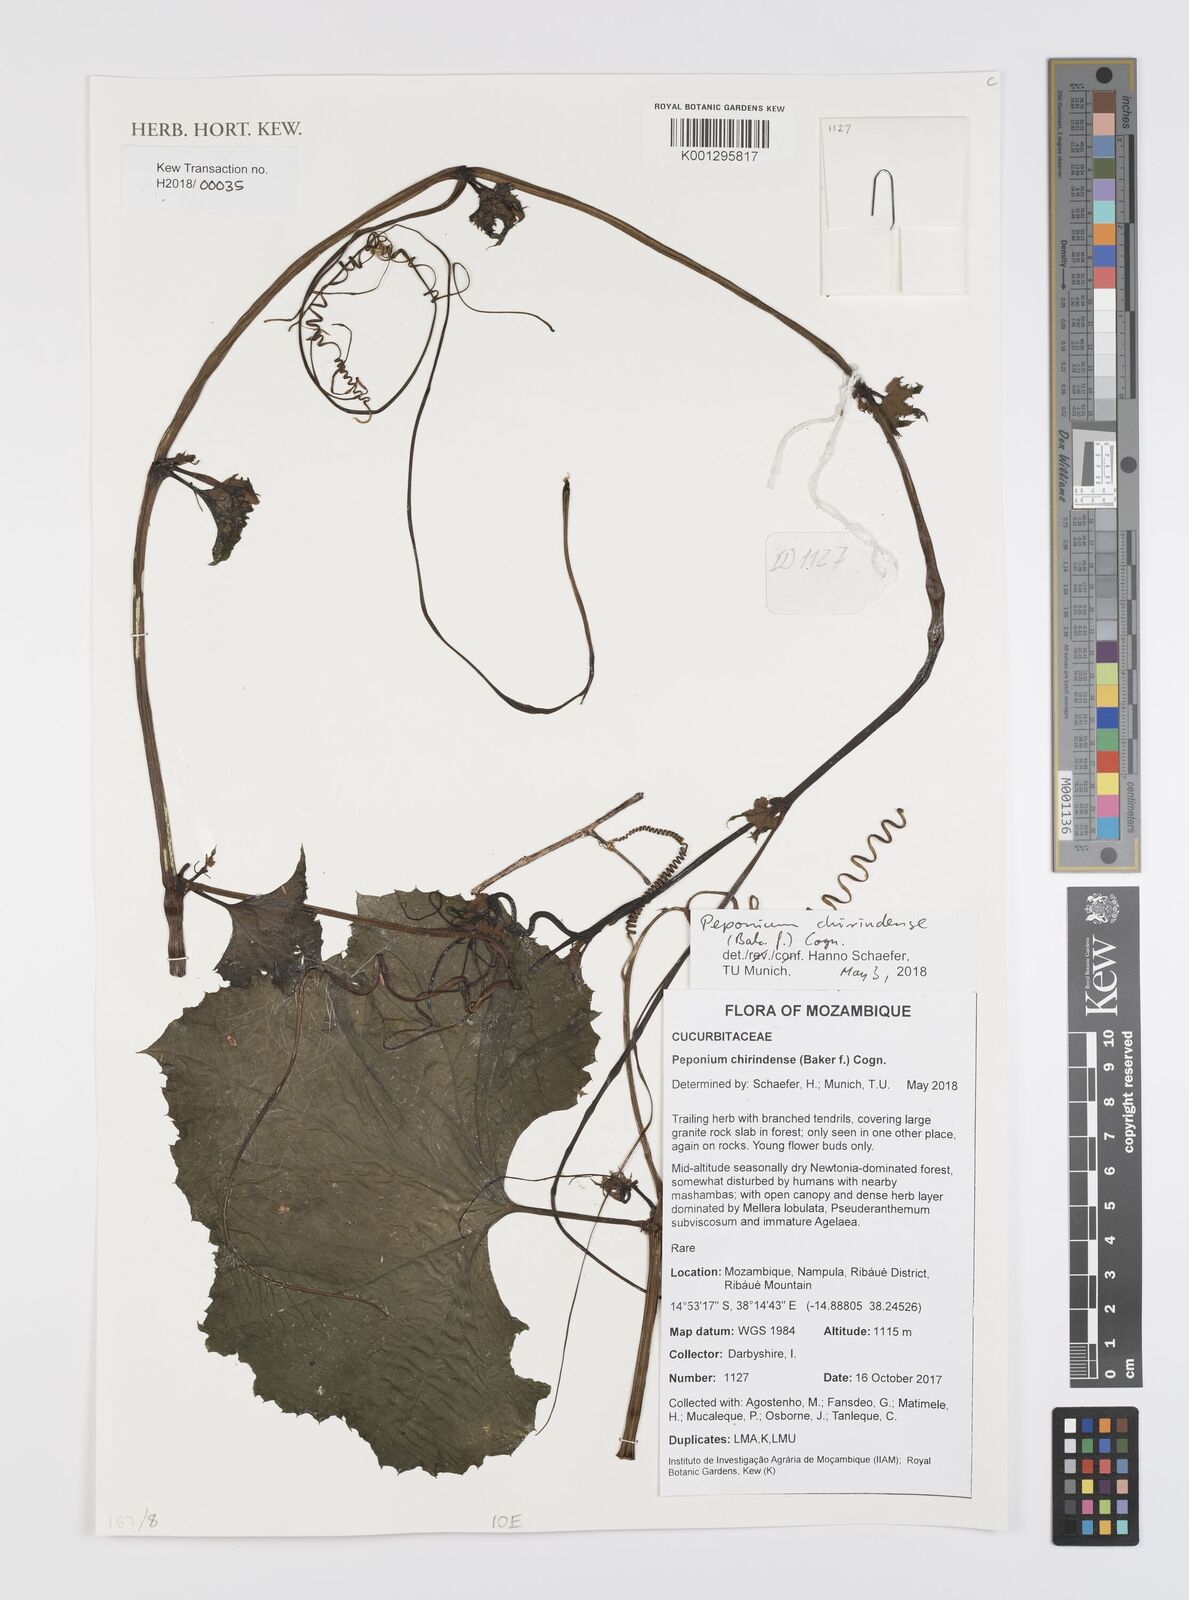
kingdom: Plantae
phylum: Tracheophyta
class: Magnoliopsida
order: Cucurbitales
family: Cucurbitaceae
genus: Peponium
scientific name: Peponium chirindense
